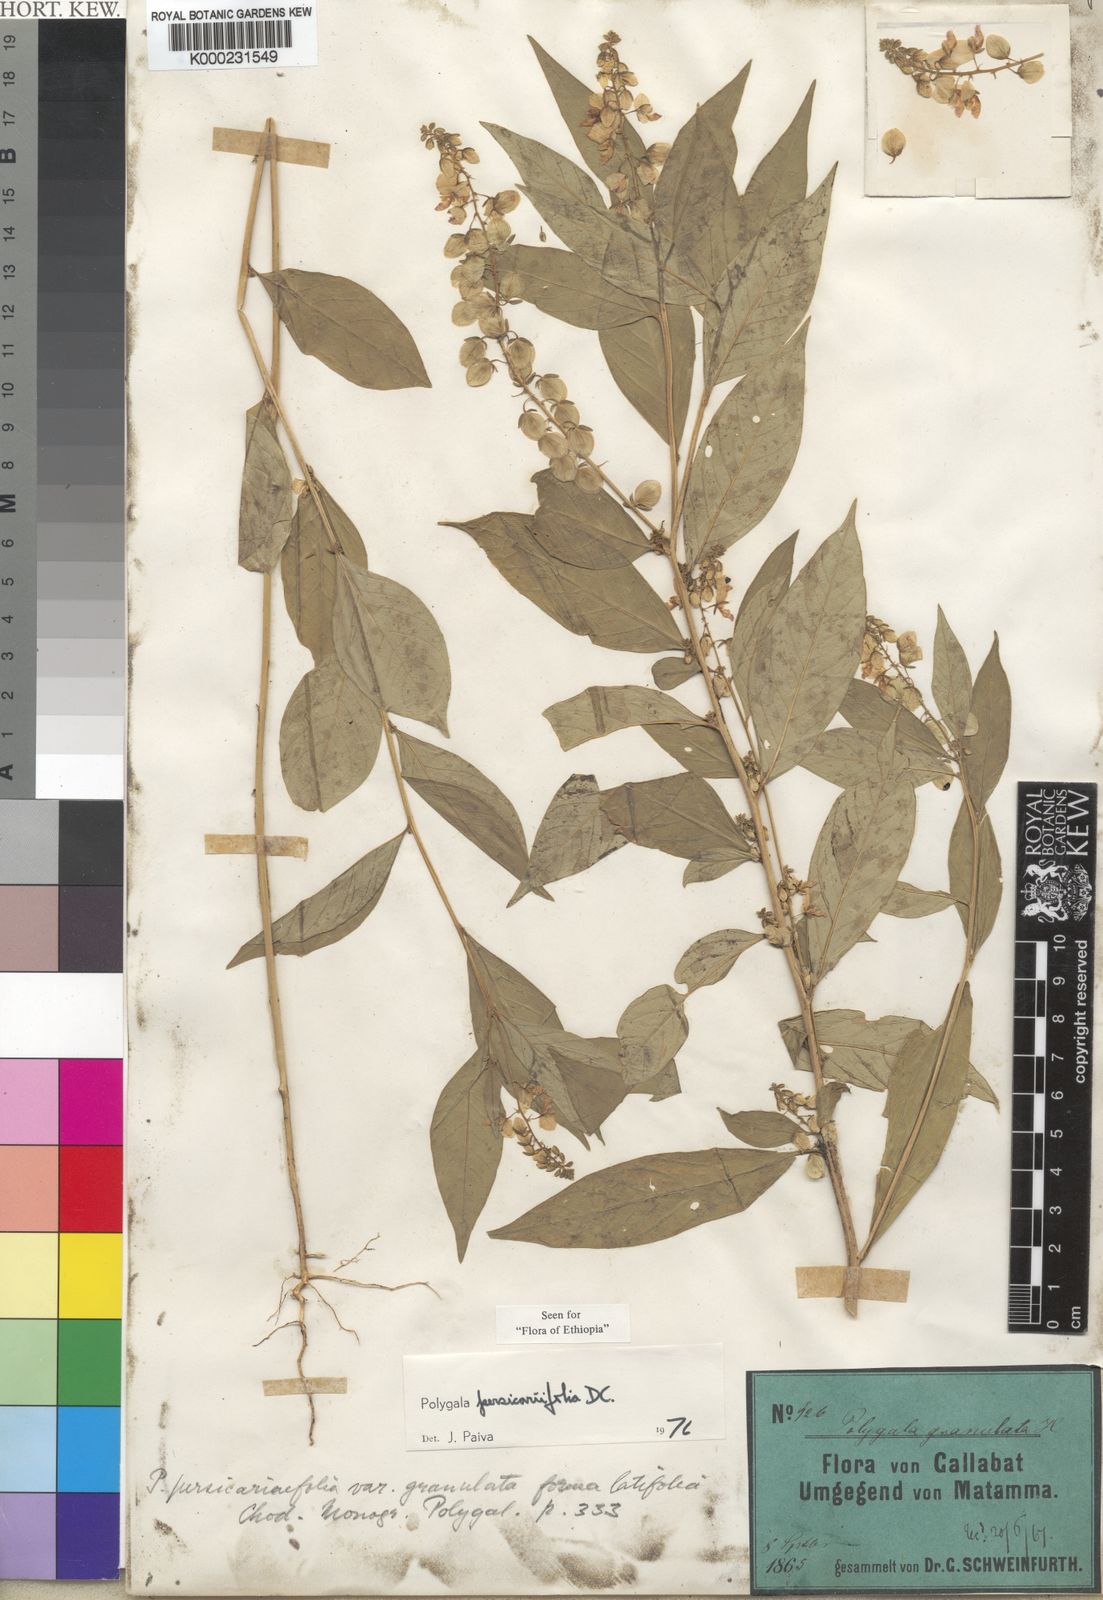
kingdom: Plantae
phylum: Tracheophyta
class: Magnoliopsida
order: Fabales
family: Polygalaceae
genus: Polygala
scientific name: Polygala persicariifolia
